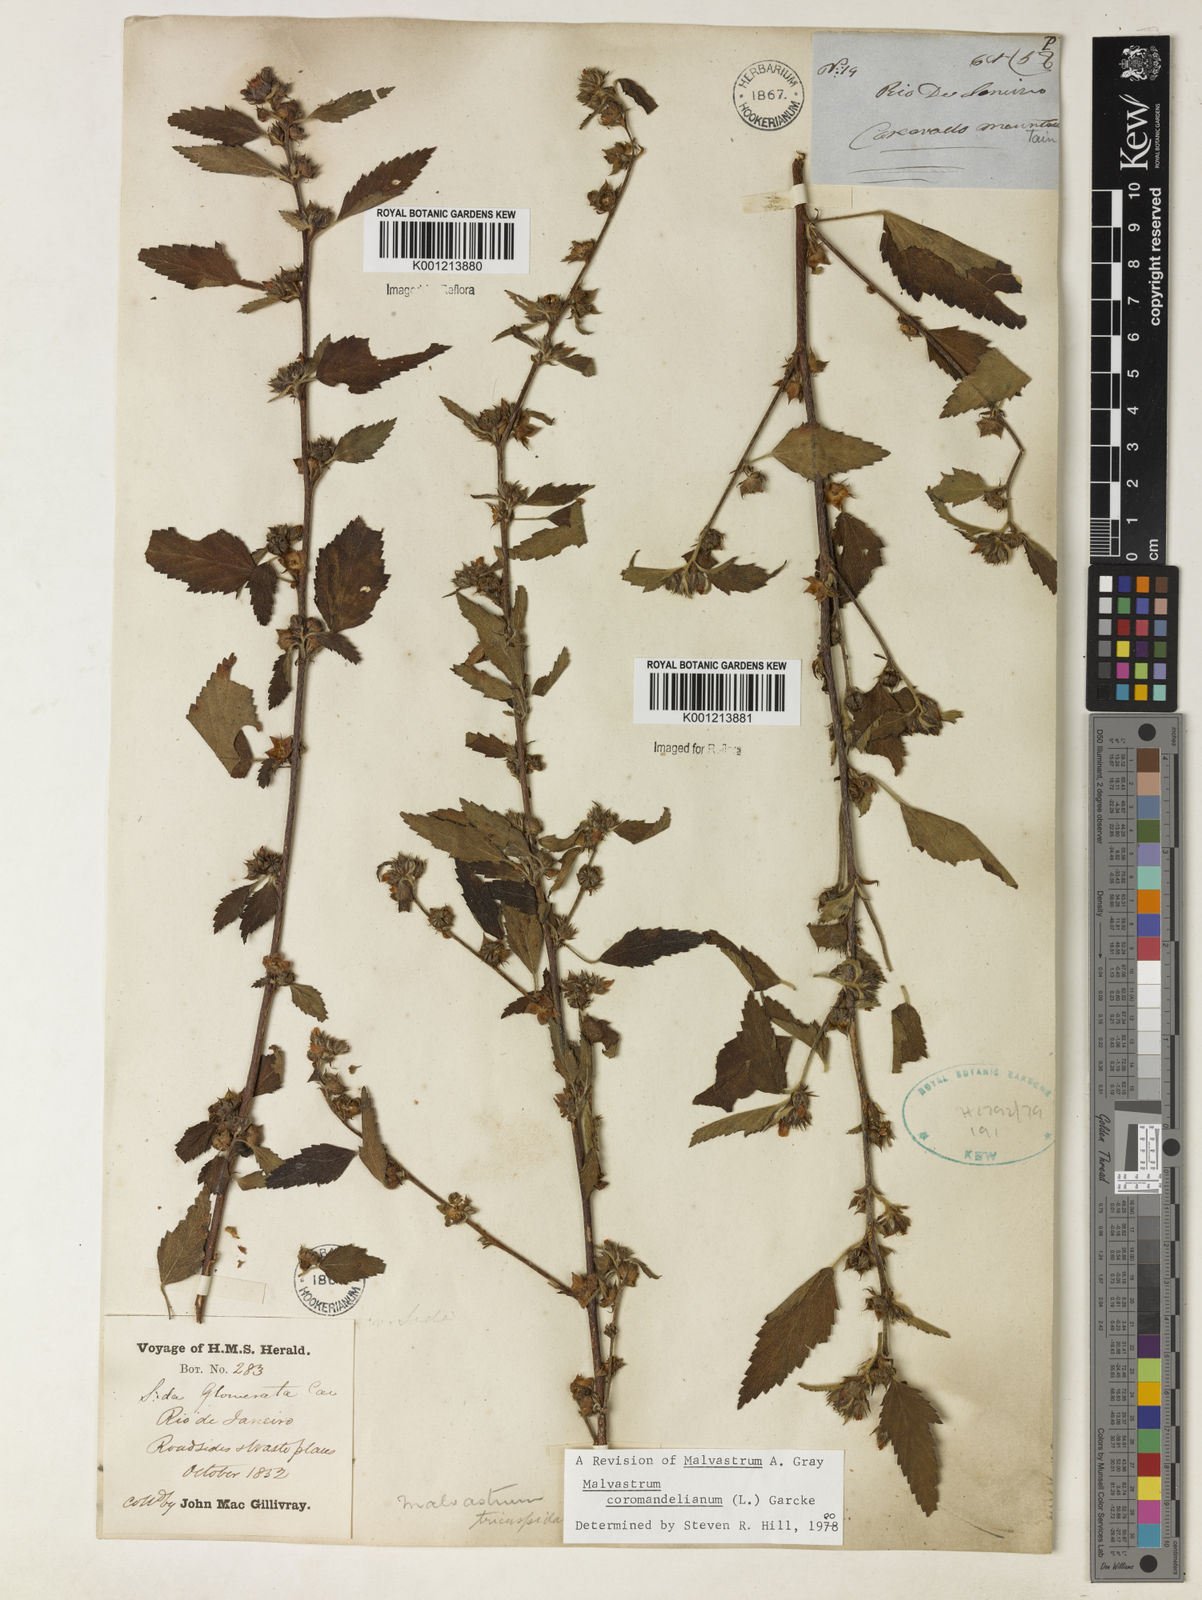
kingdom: Plantae
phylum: Tracheophyta
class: Magnoliopsida
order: Malvales
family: Malvaceae
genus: Malvastrum
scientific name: Malvastrum coromandelianum
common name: Threelobe false mallow
